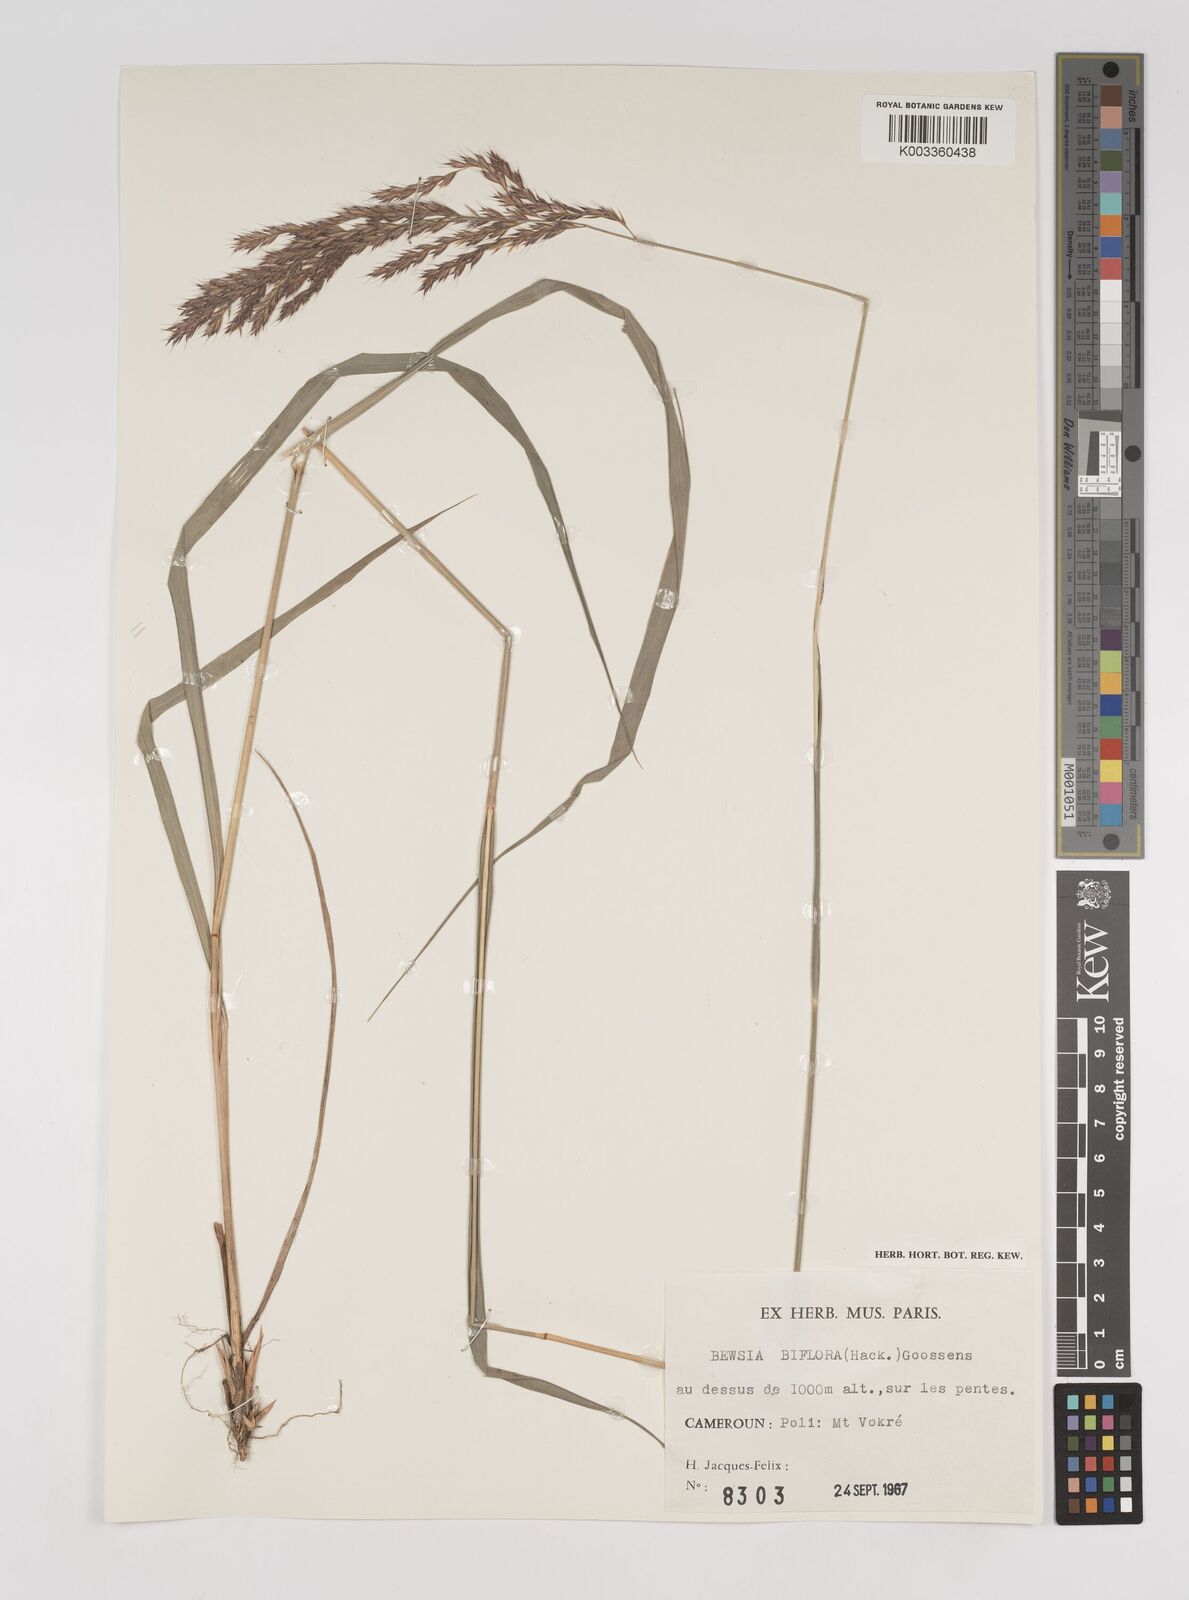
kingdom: Plantae
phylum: Tracheophyta
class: Liliopsida
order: Poales
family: Poaceae
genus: Bewsia
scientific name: Bewsia biflora
